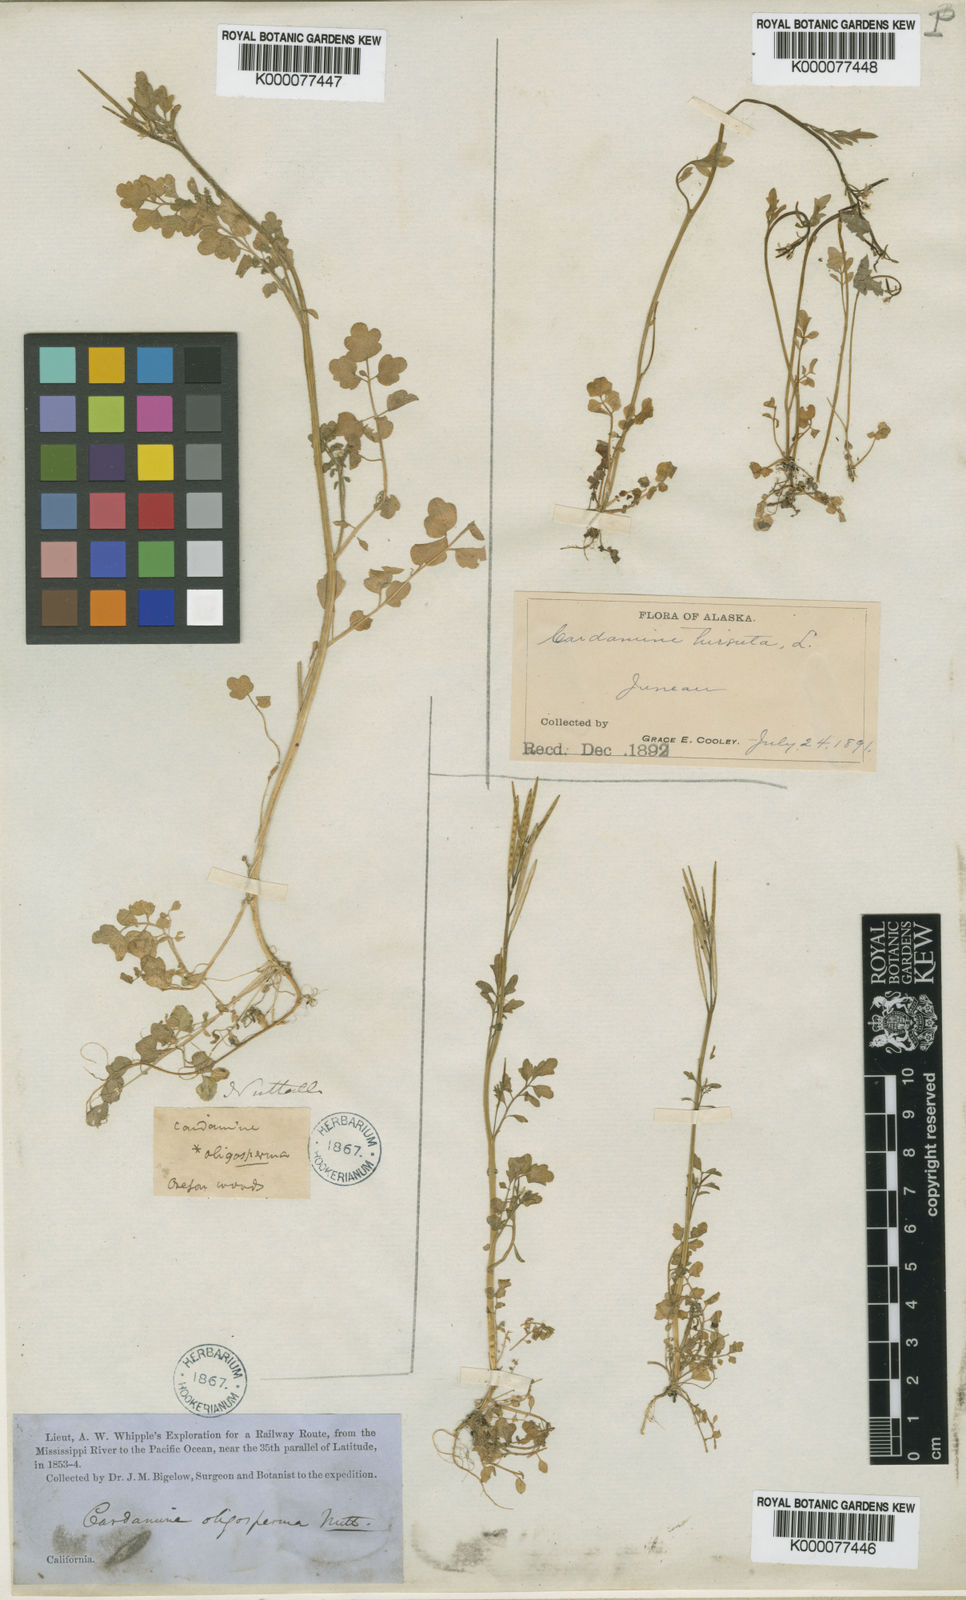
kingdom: Plantae
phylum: Tracheophyta
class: Magnoliopsida
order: Brassicales
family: Brassicaceae
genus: Cardamine
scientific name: Cardamine oligosperma
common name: Idaho bittercress
